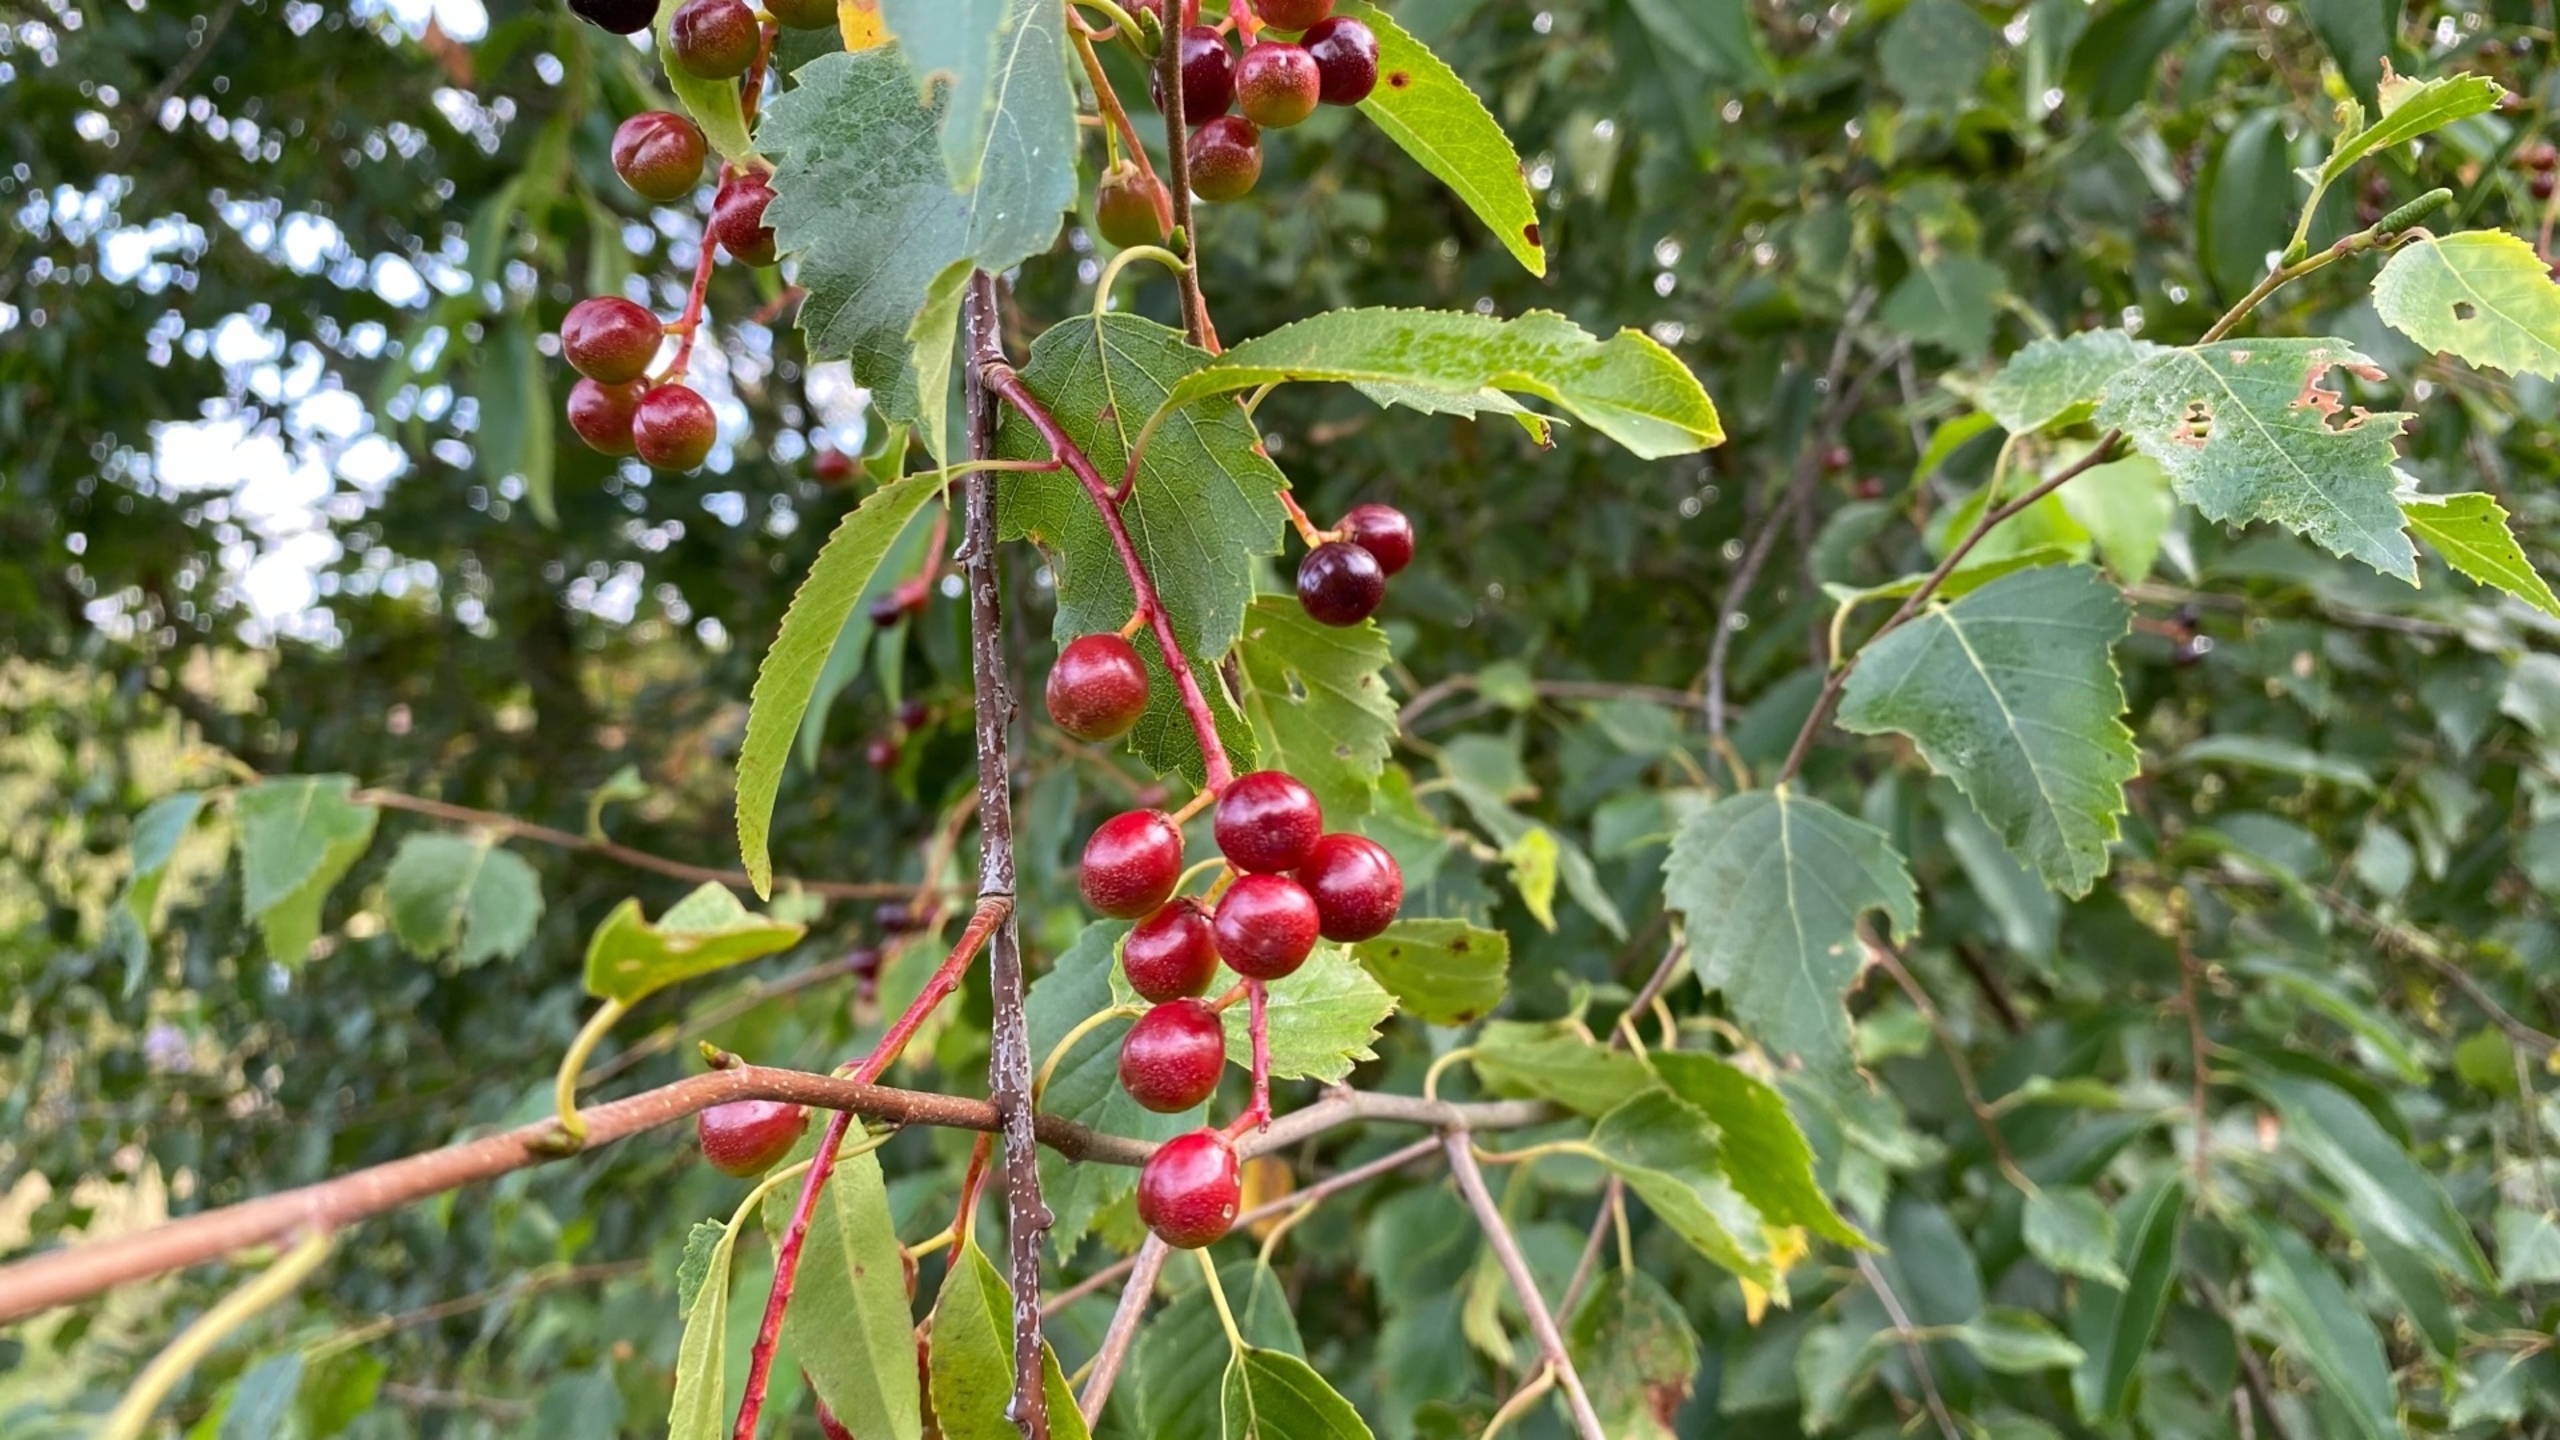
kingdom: Plantae
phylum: Tracheophyta
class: Magnoliopsida
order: Rosales
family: Rosaceae
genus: Prunus
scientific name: Prunus serotina
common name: Glansbladet hæg
